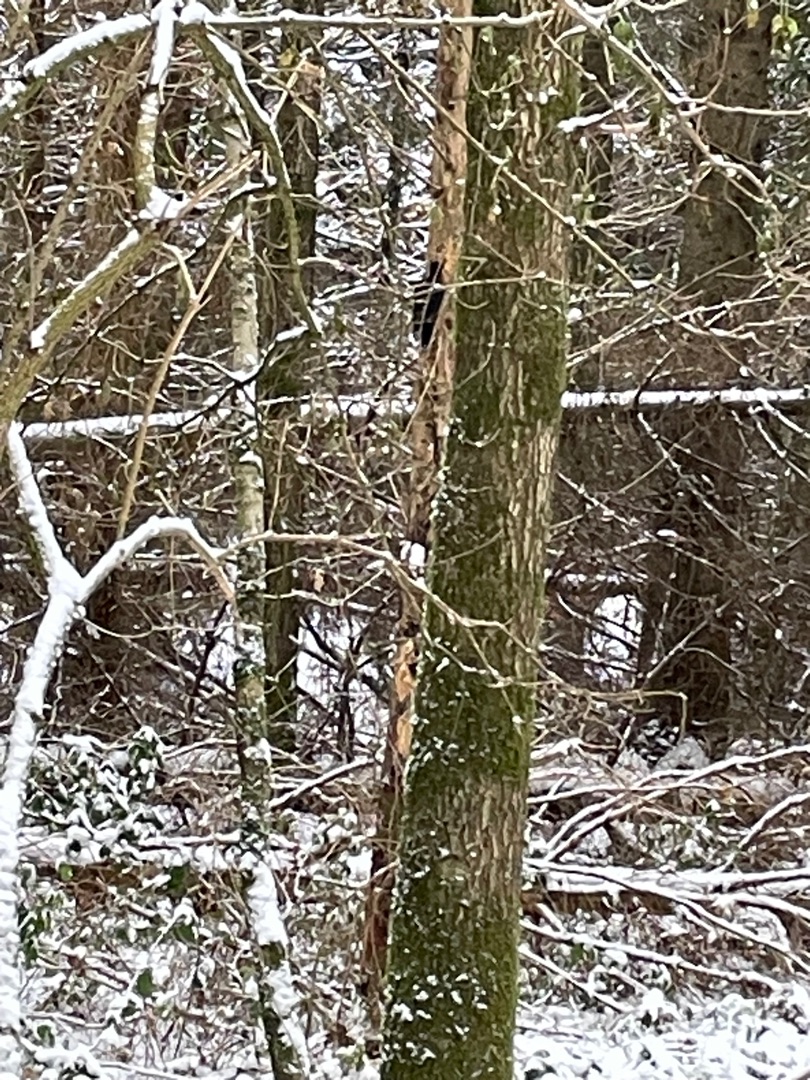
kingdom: Animalia
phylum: Chordata
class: Aves
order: Piciformes
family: Picidae
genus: Dryocopus
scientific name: Dryocopus martius
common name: Sortspætte
